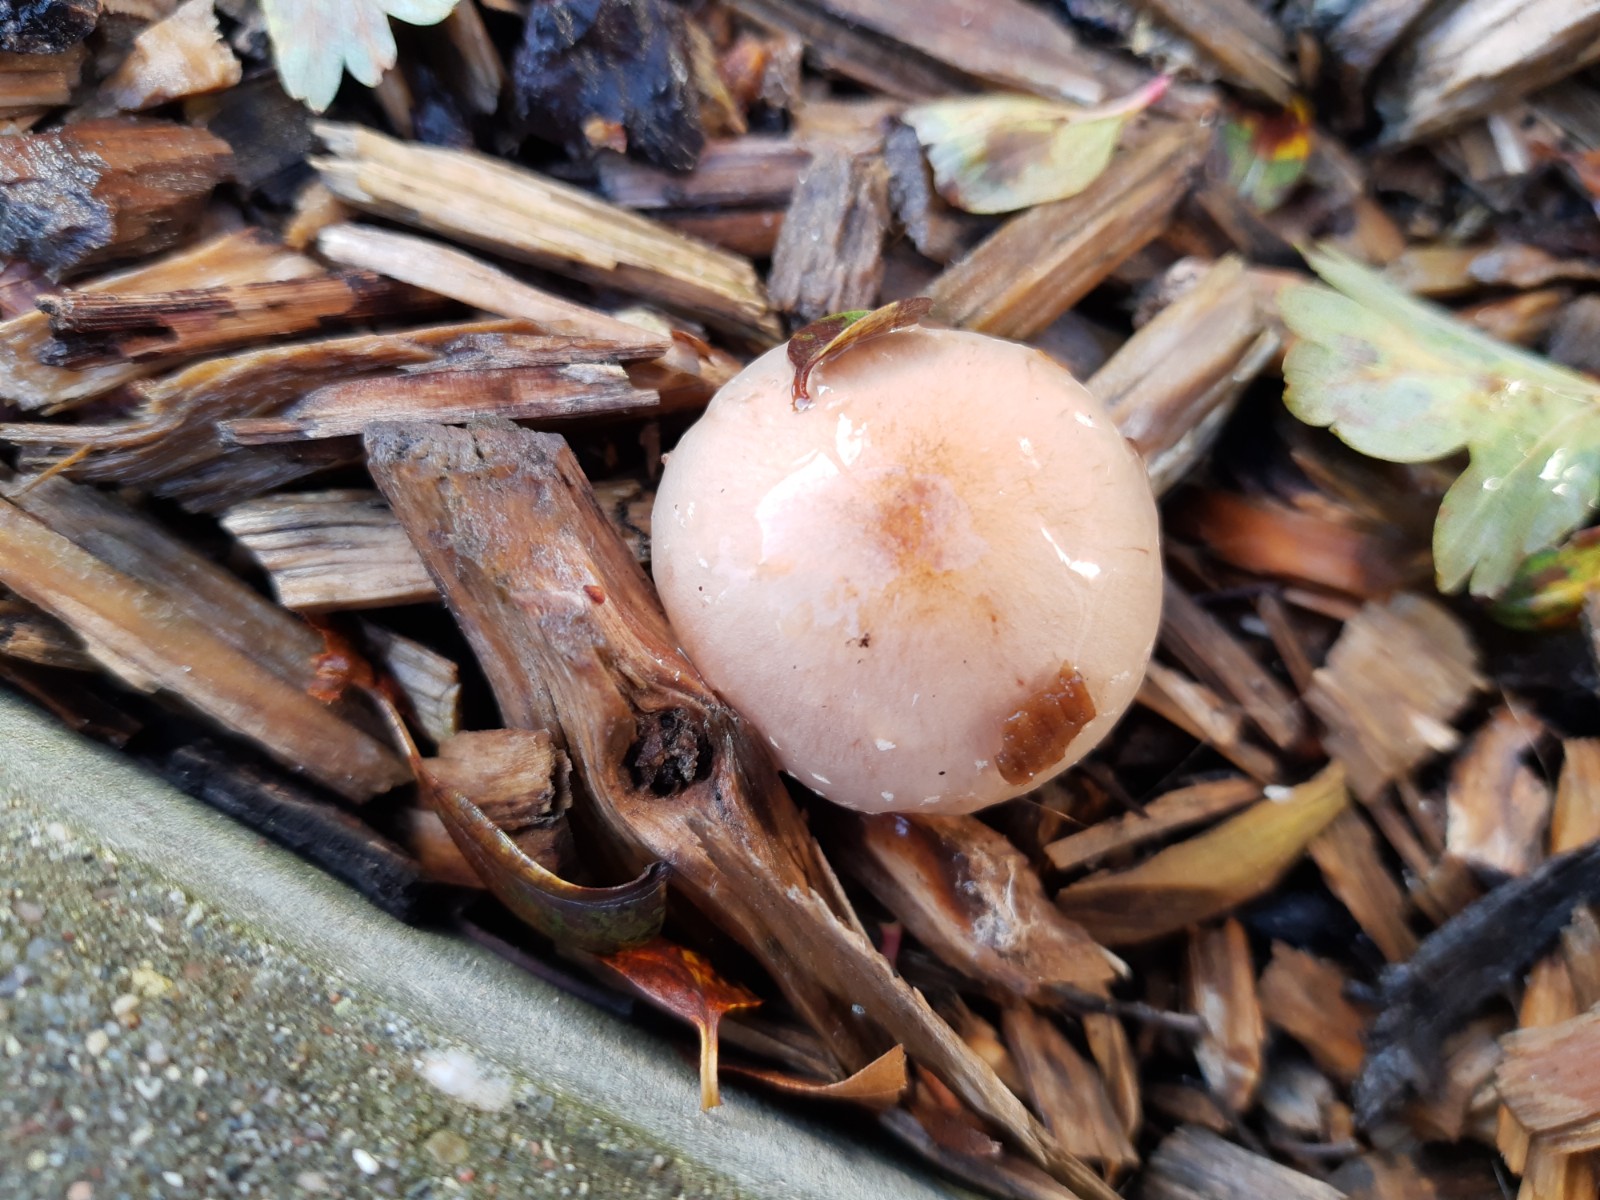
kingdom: Fungi
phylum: Basidiomycota
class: Agaricomycetes
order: Agaricales
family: Strophariaceae
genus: Pholiota
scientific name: Pholiota lenta
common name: løv-skælhat
